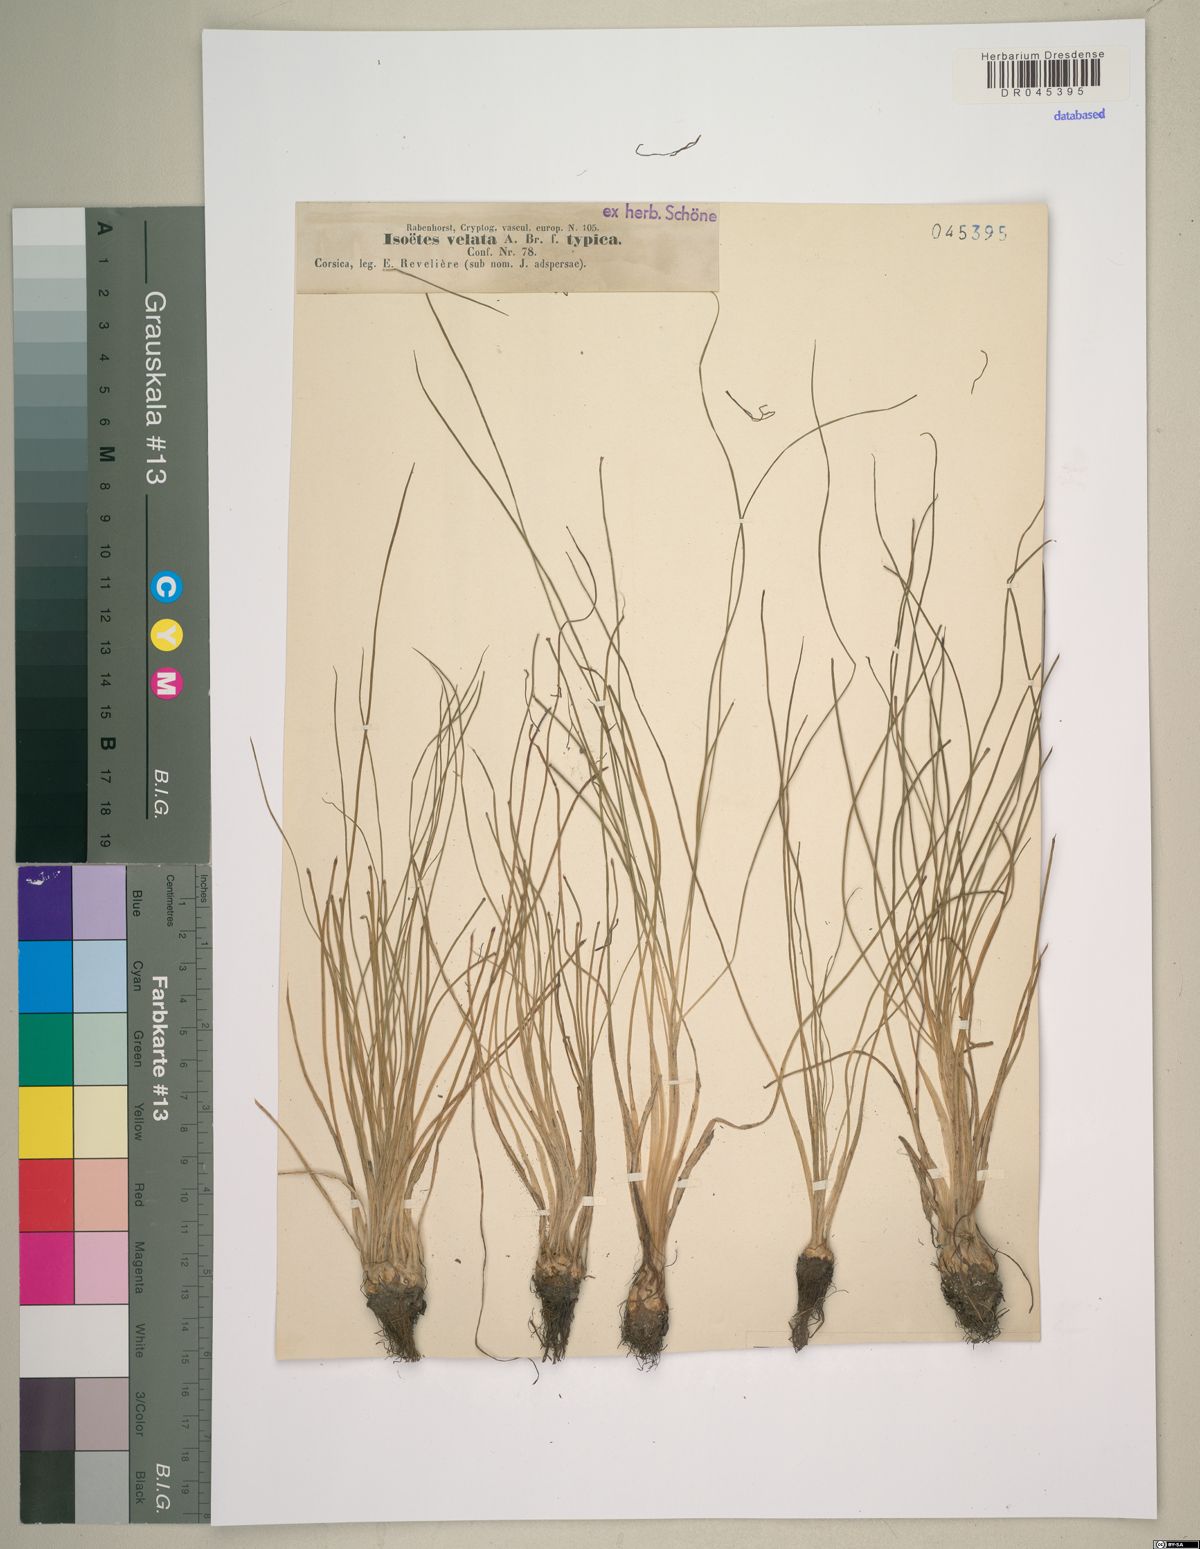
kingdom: Plantae
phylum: Tracheophyta
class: Lycopodiopsida
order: Isoetales
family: Isoetaceae
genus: Isoetes
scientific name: Isoetes longissima
